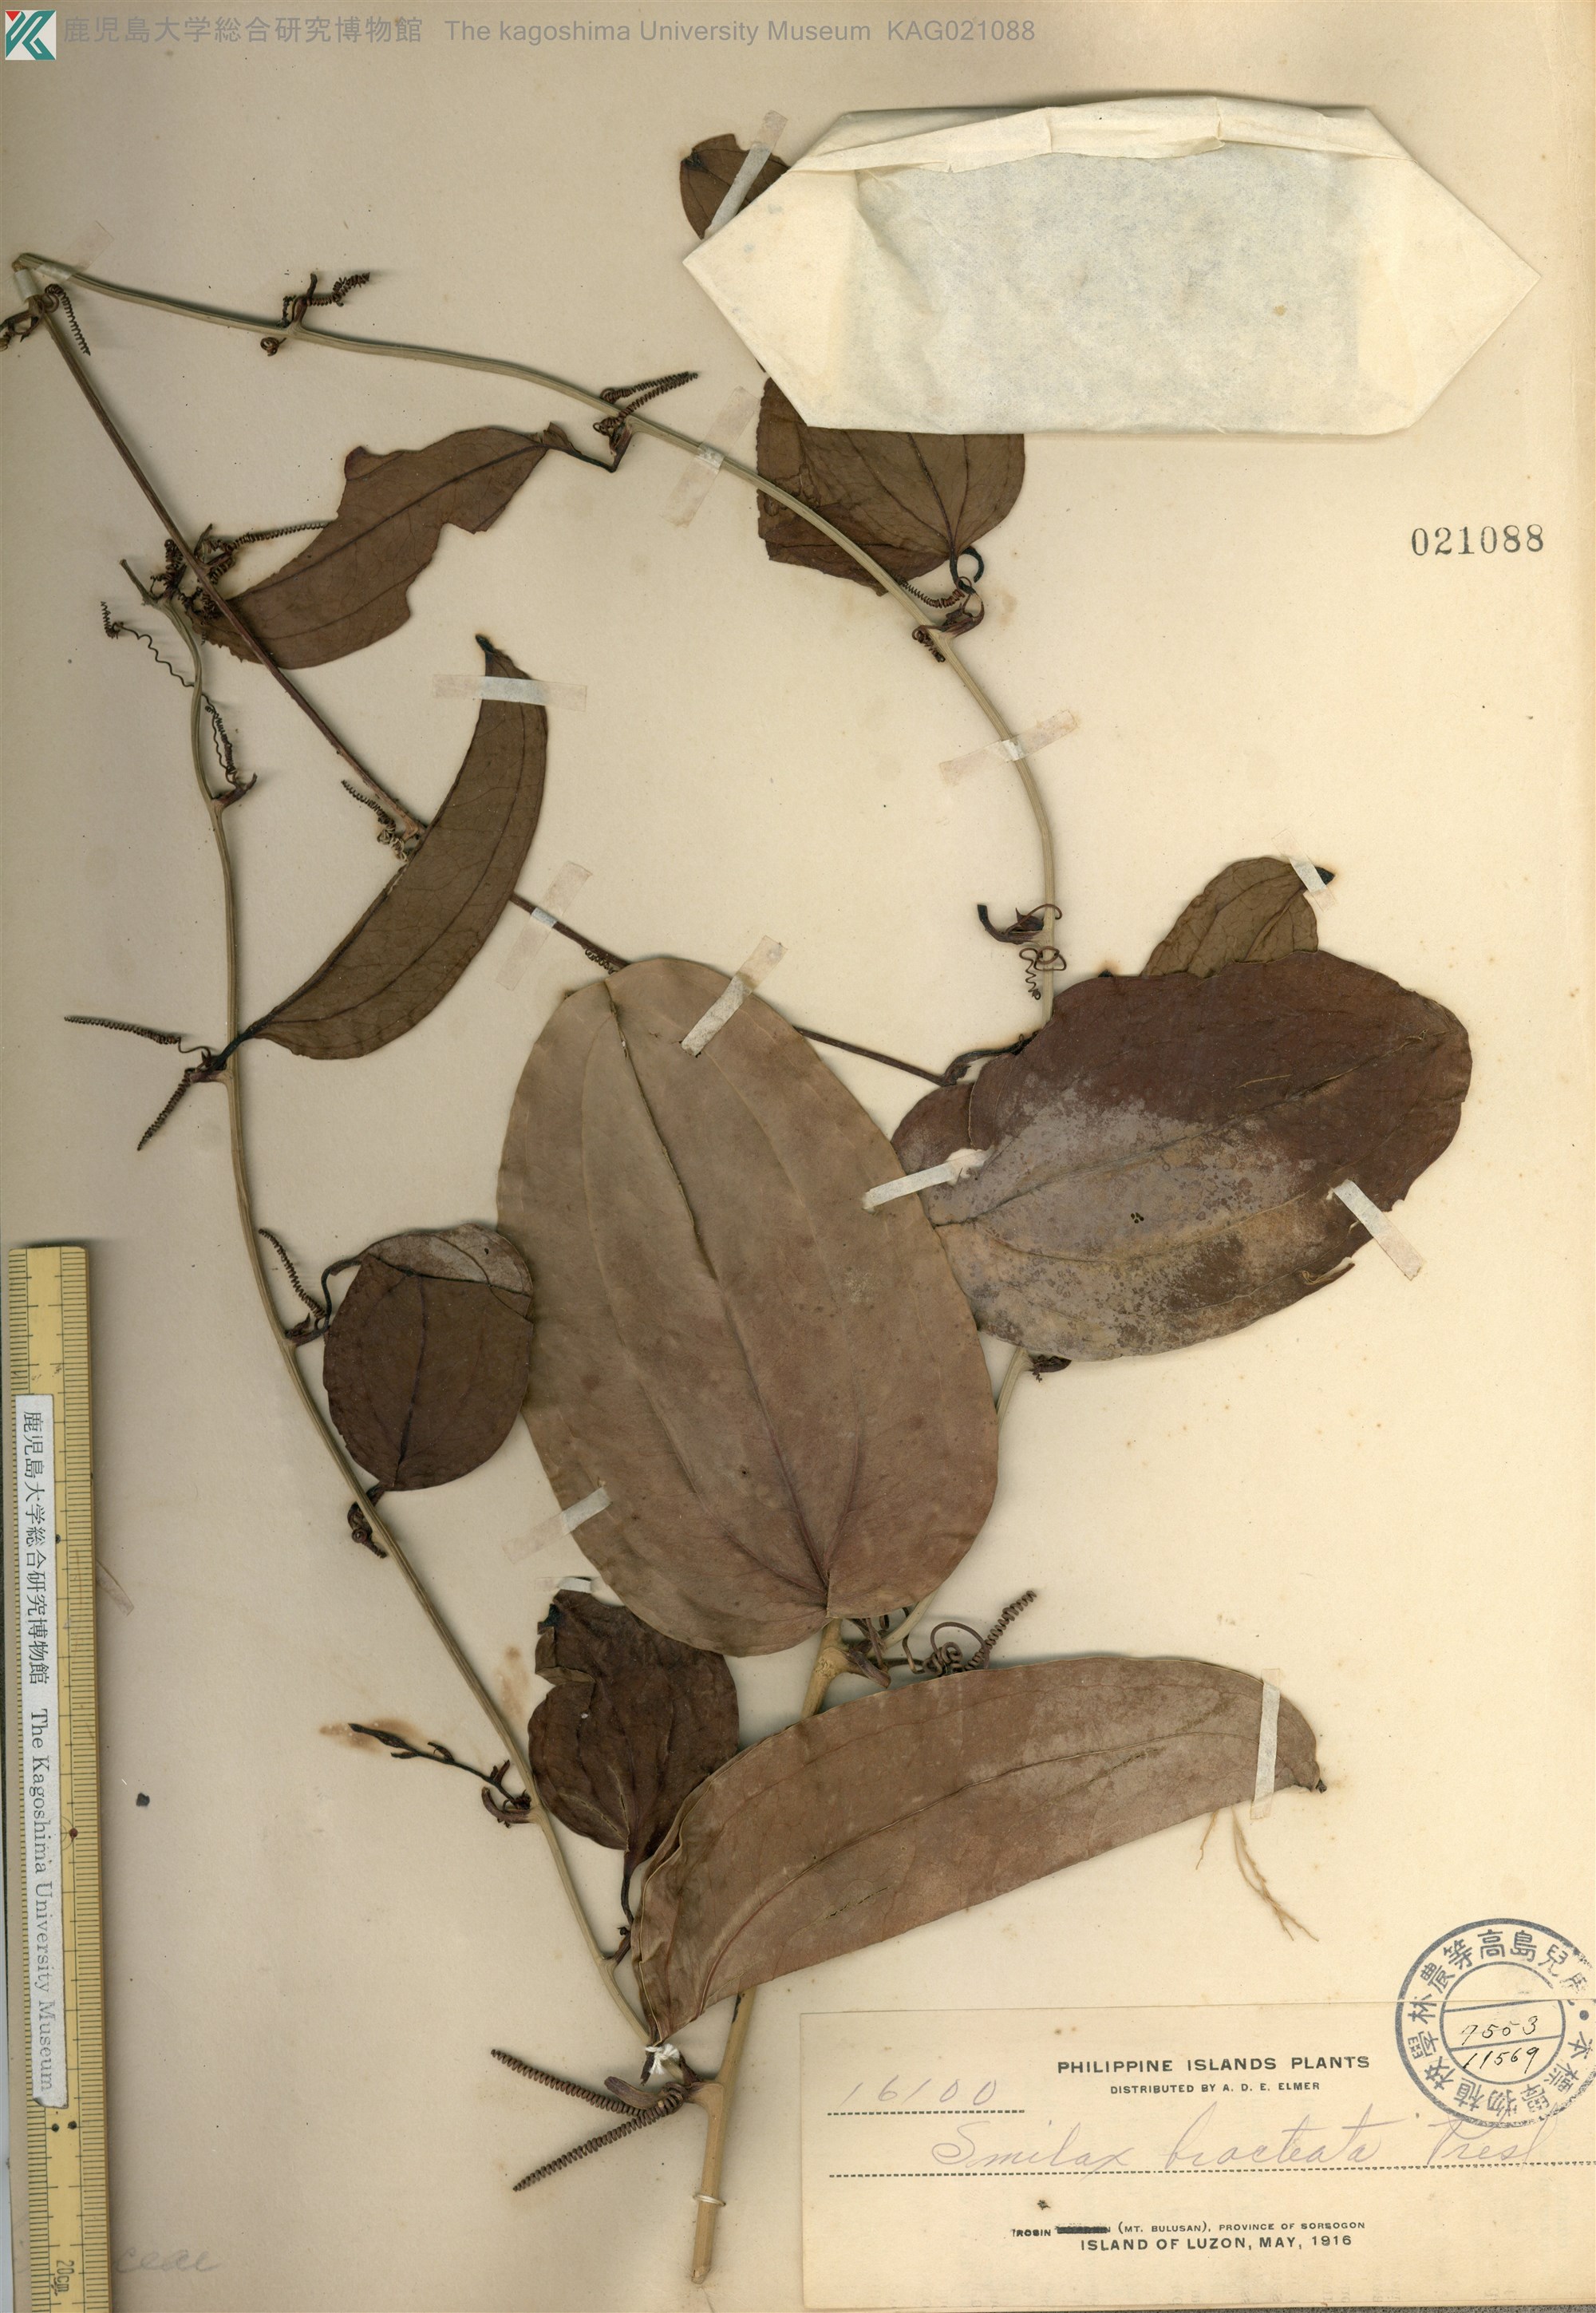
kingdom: Plantae
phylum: Tracheophyta
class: Liliopsida
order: Liliales
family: Smilacaceae
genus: Smilax
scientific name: Smilax bracteata
